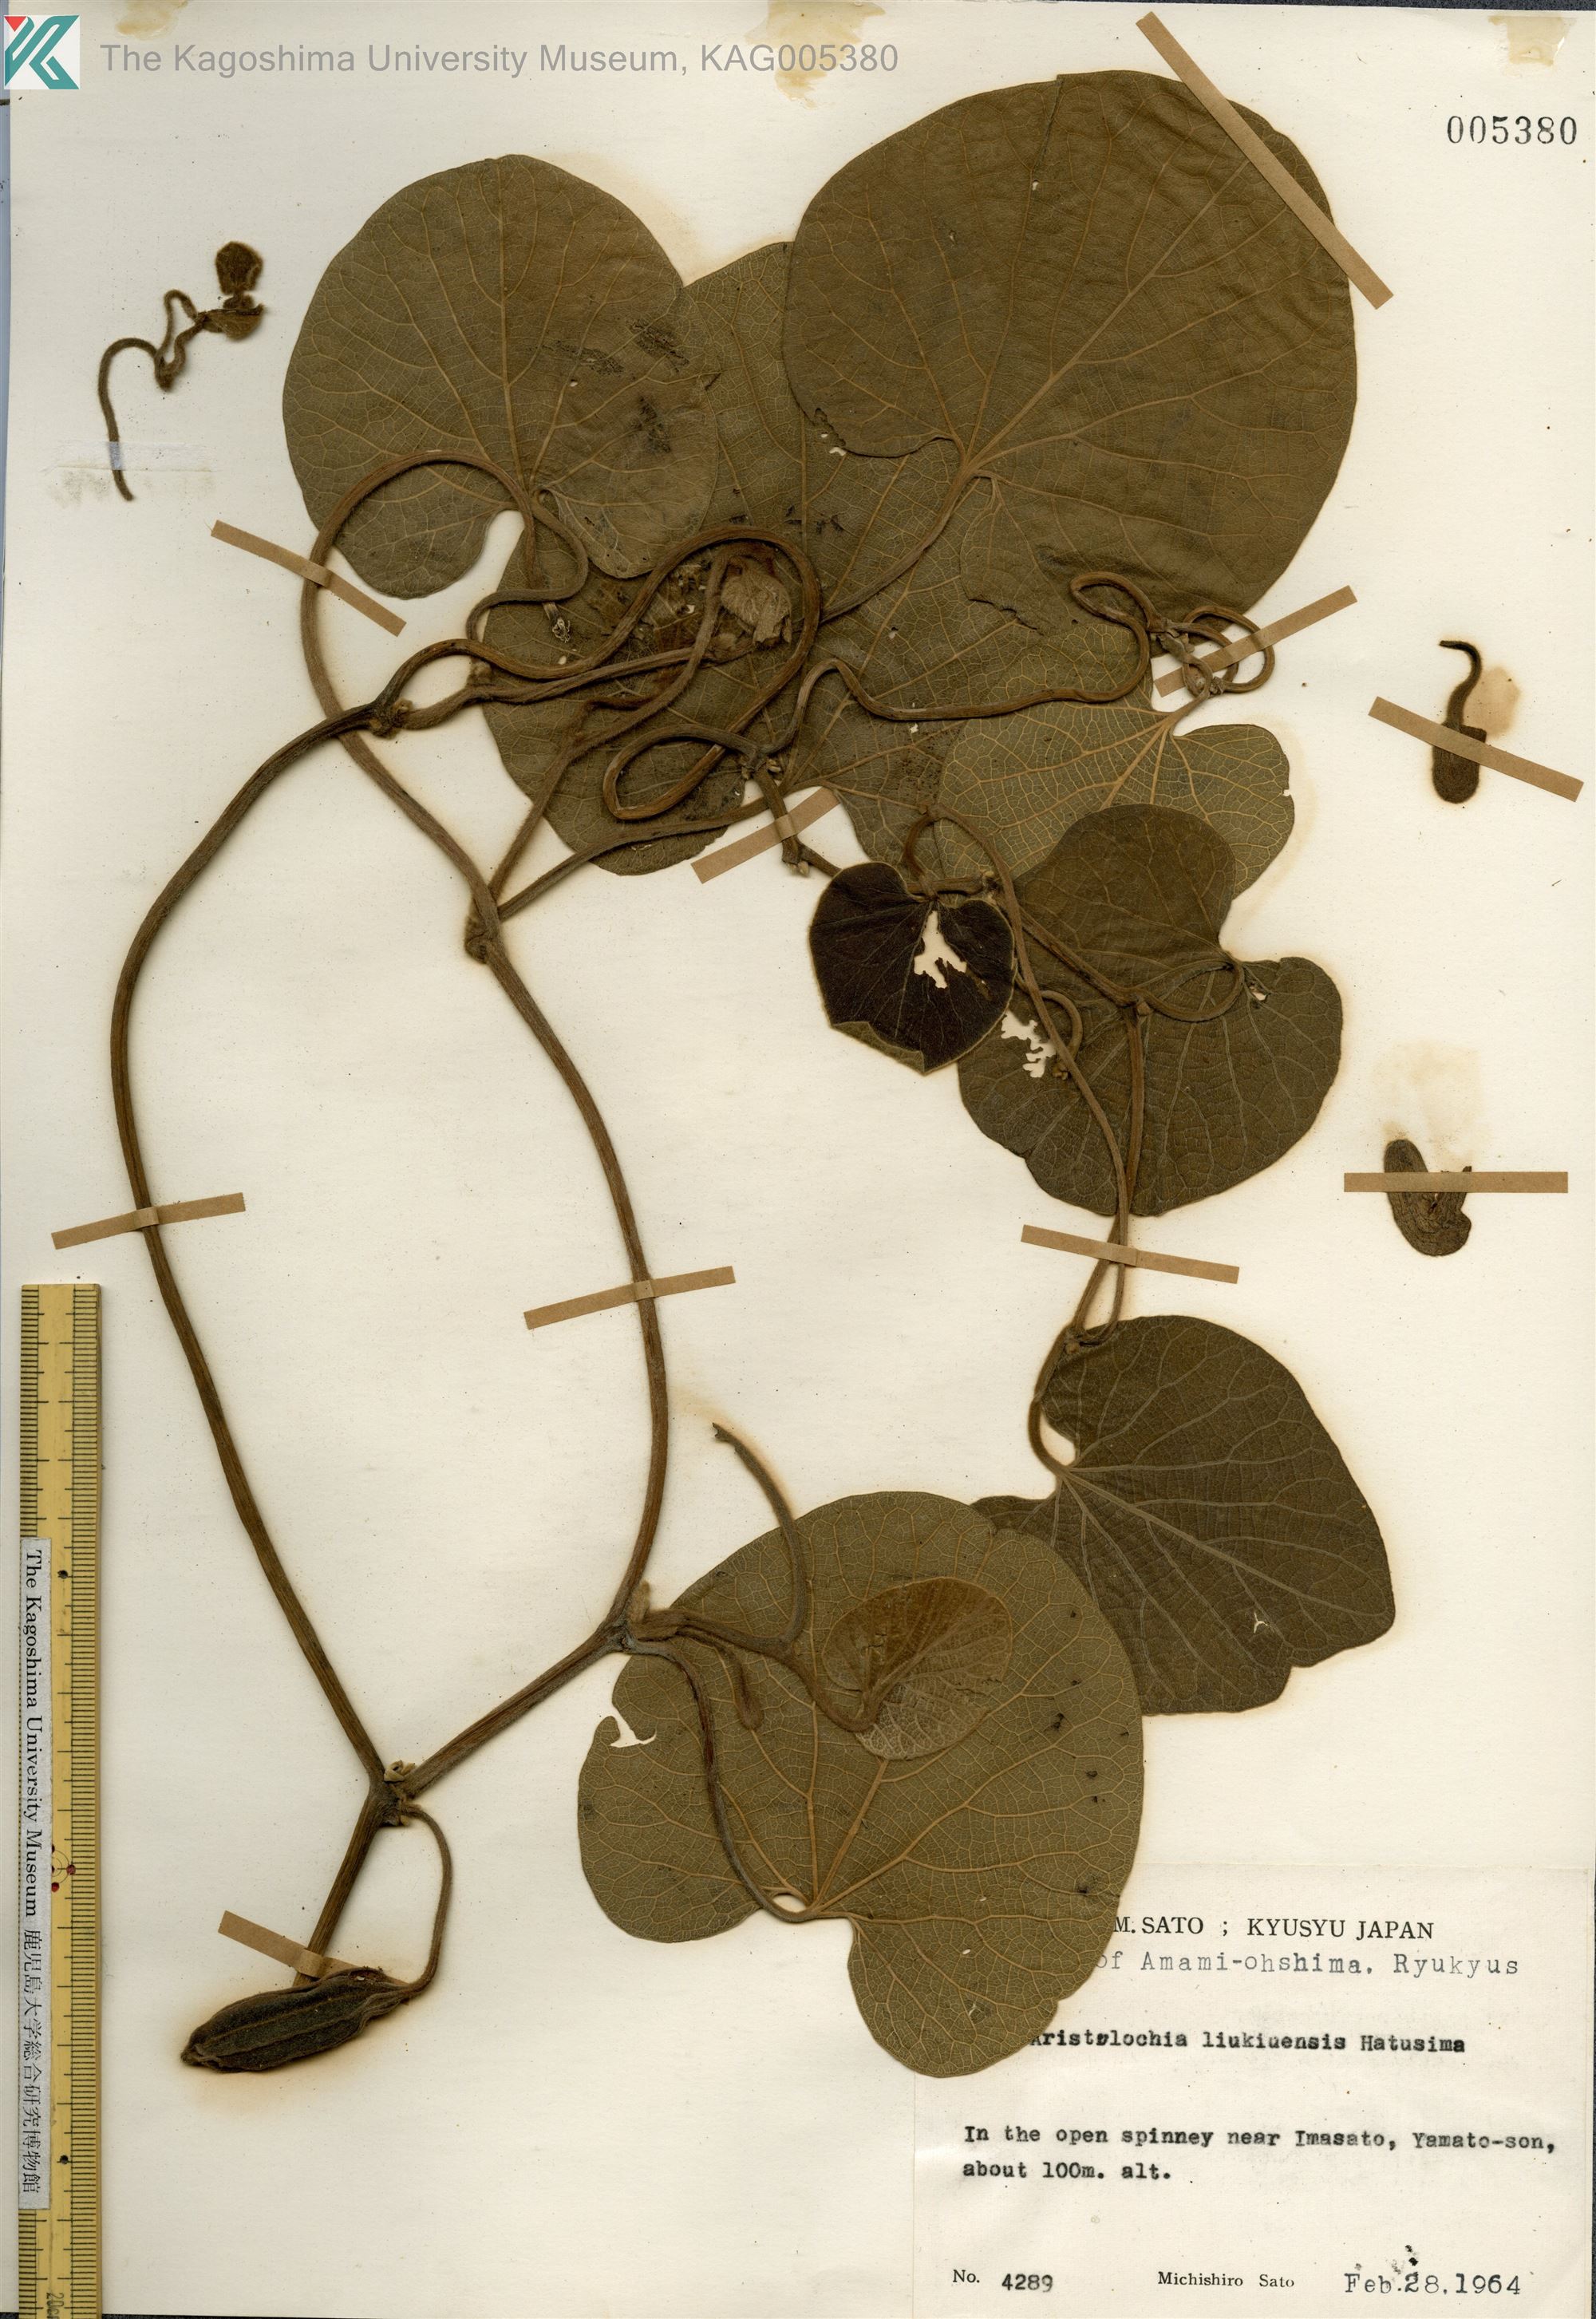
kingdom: Plantae
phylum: Tracheophyta
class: Magnoliopsida
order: Piperales
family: Aristolochiaceae
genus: Isotrema
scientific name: Isotrema liukiuense
